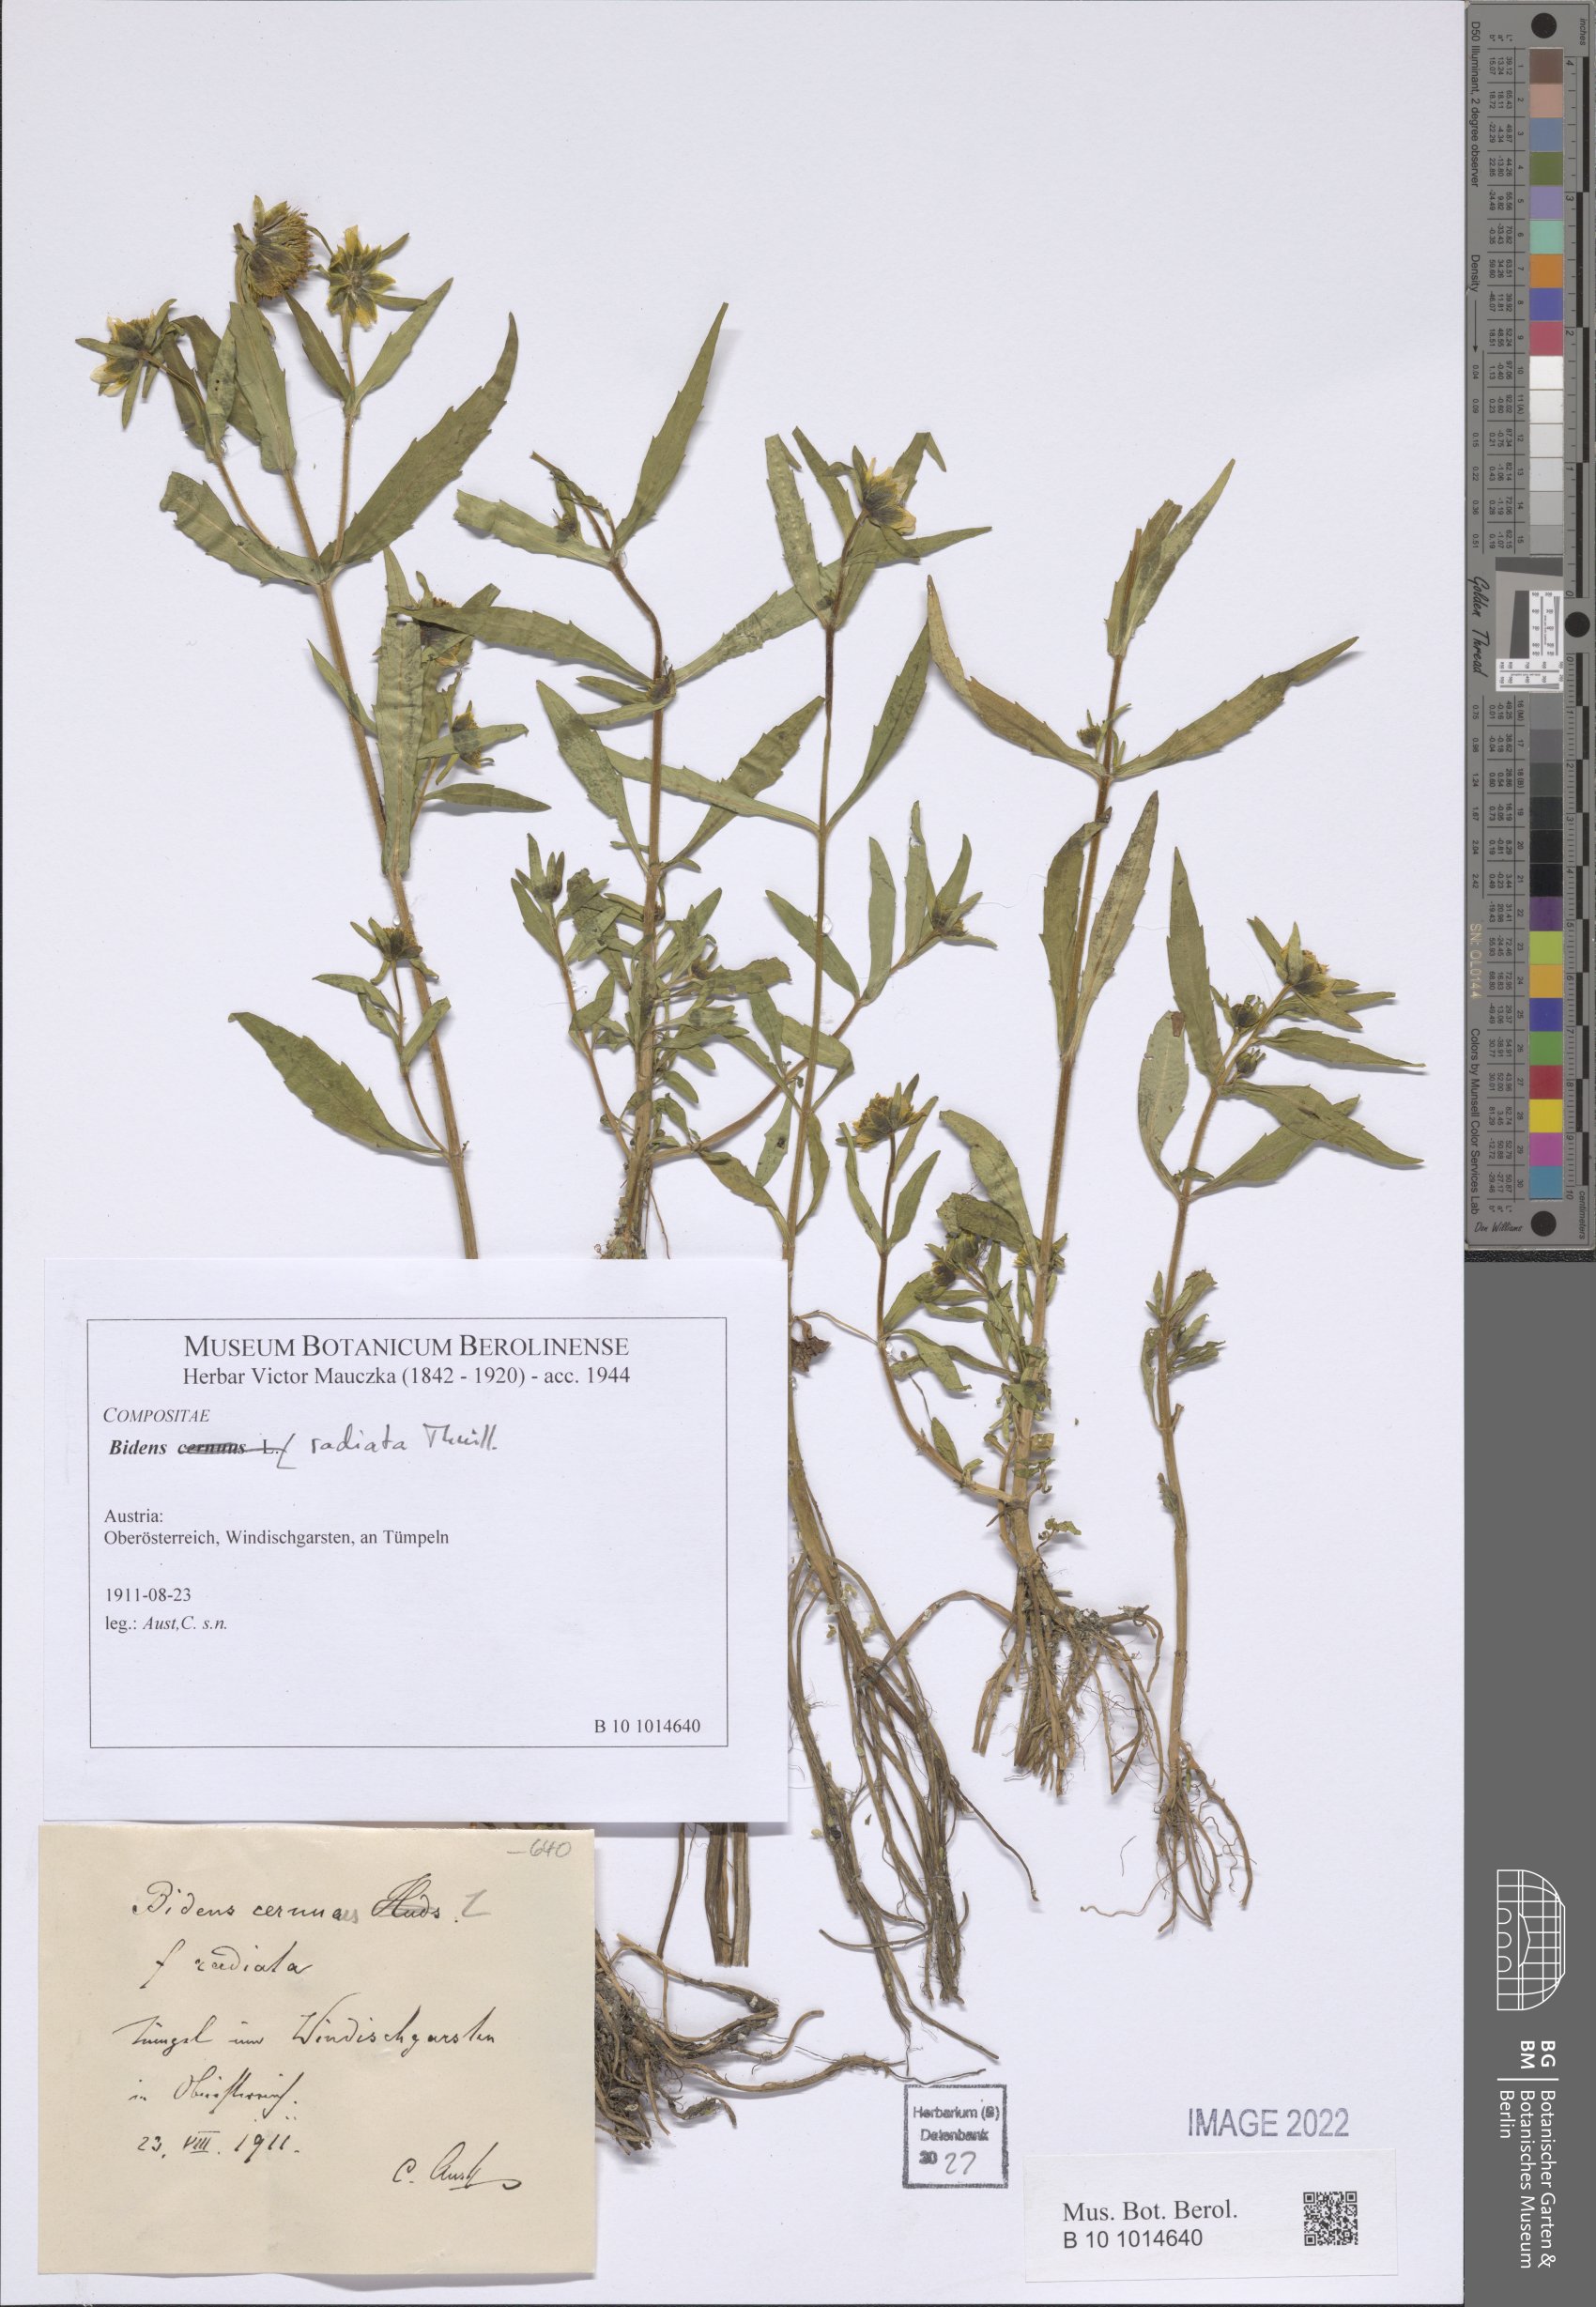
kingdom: Plantae
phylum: Tracheophyta
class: Magnoliopsida
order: Asterales
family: Asteraceae
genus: Bidens
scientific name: Bidens radiata
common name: Radiating bur-marigold
